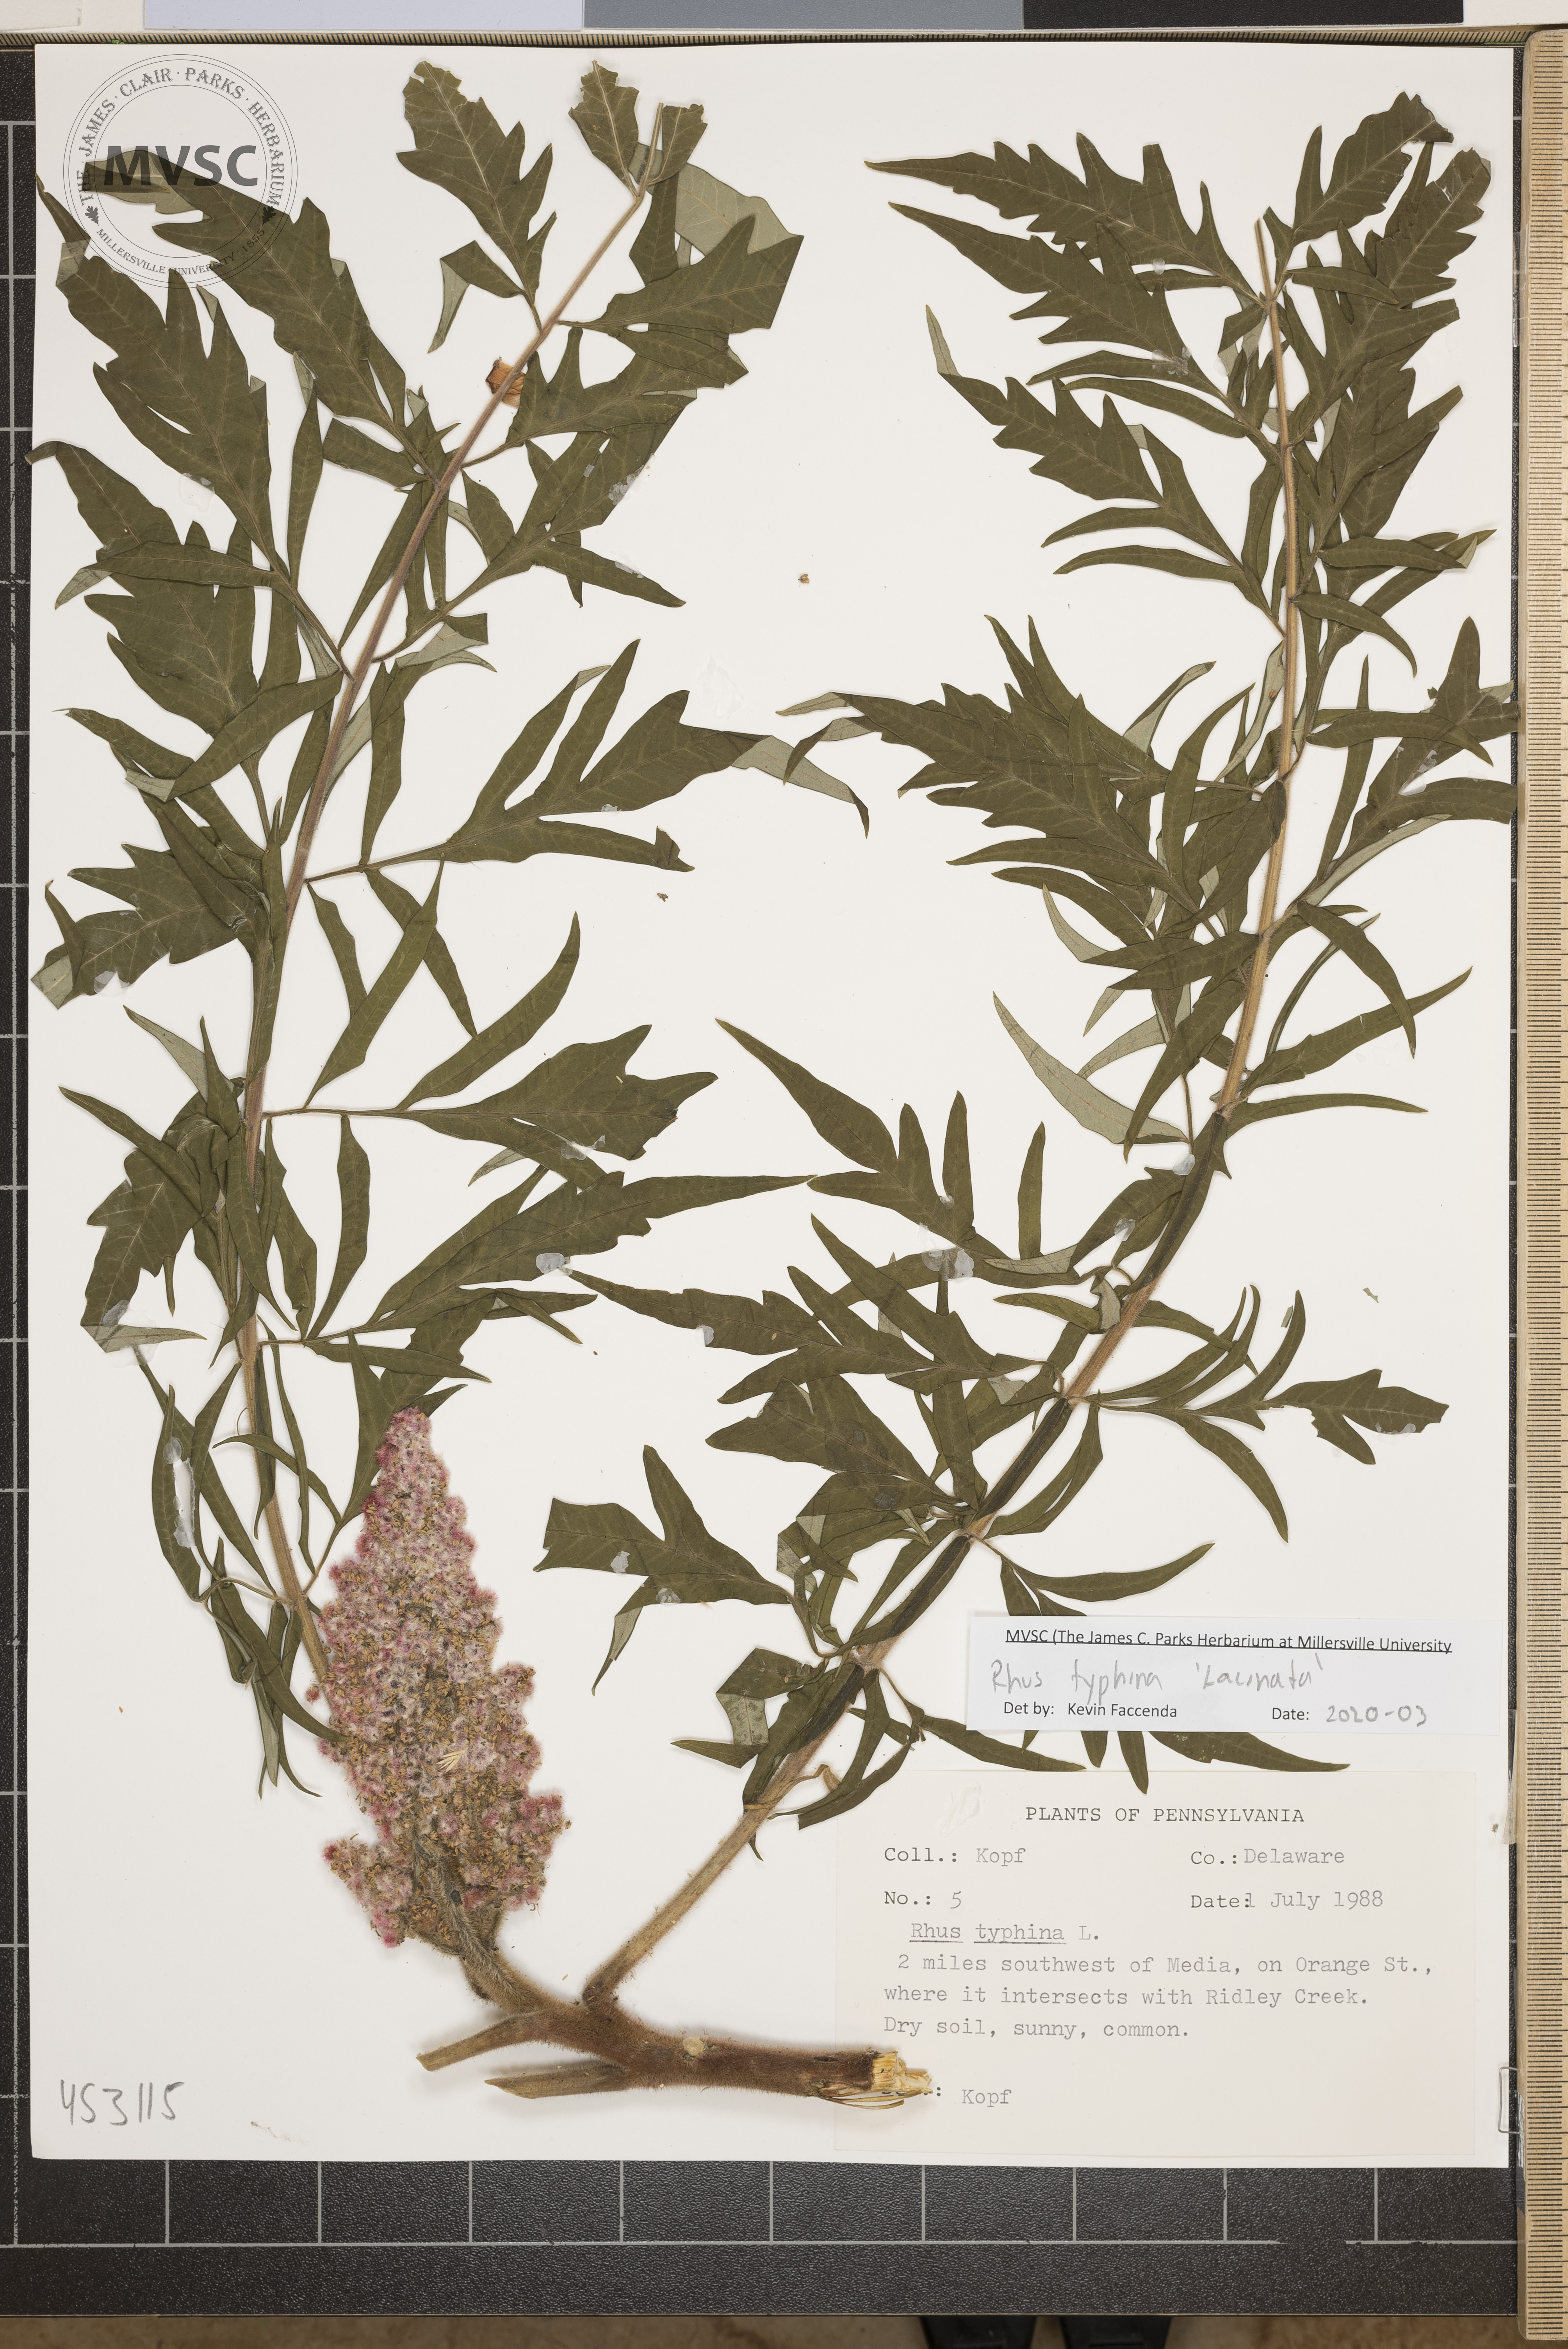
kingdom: Plantae
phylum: Tracheophyta
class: Magnoliopsida
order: Sapindales
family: Anacardiaceae
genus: Rhus
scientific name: Rhus typhina
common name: Staghorn sumac
